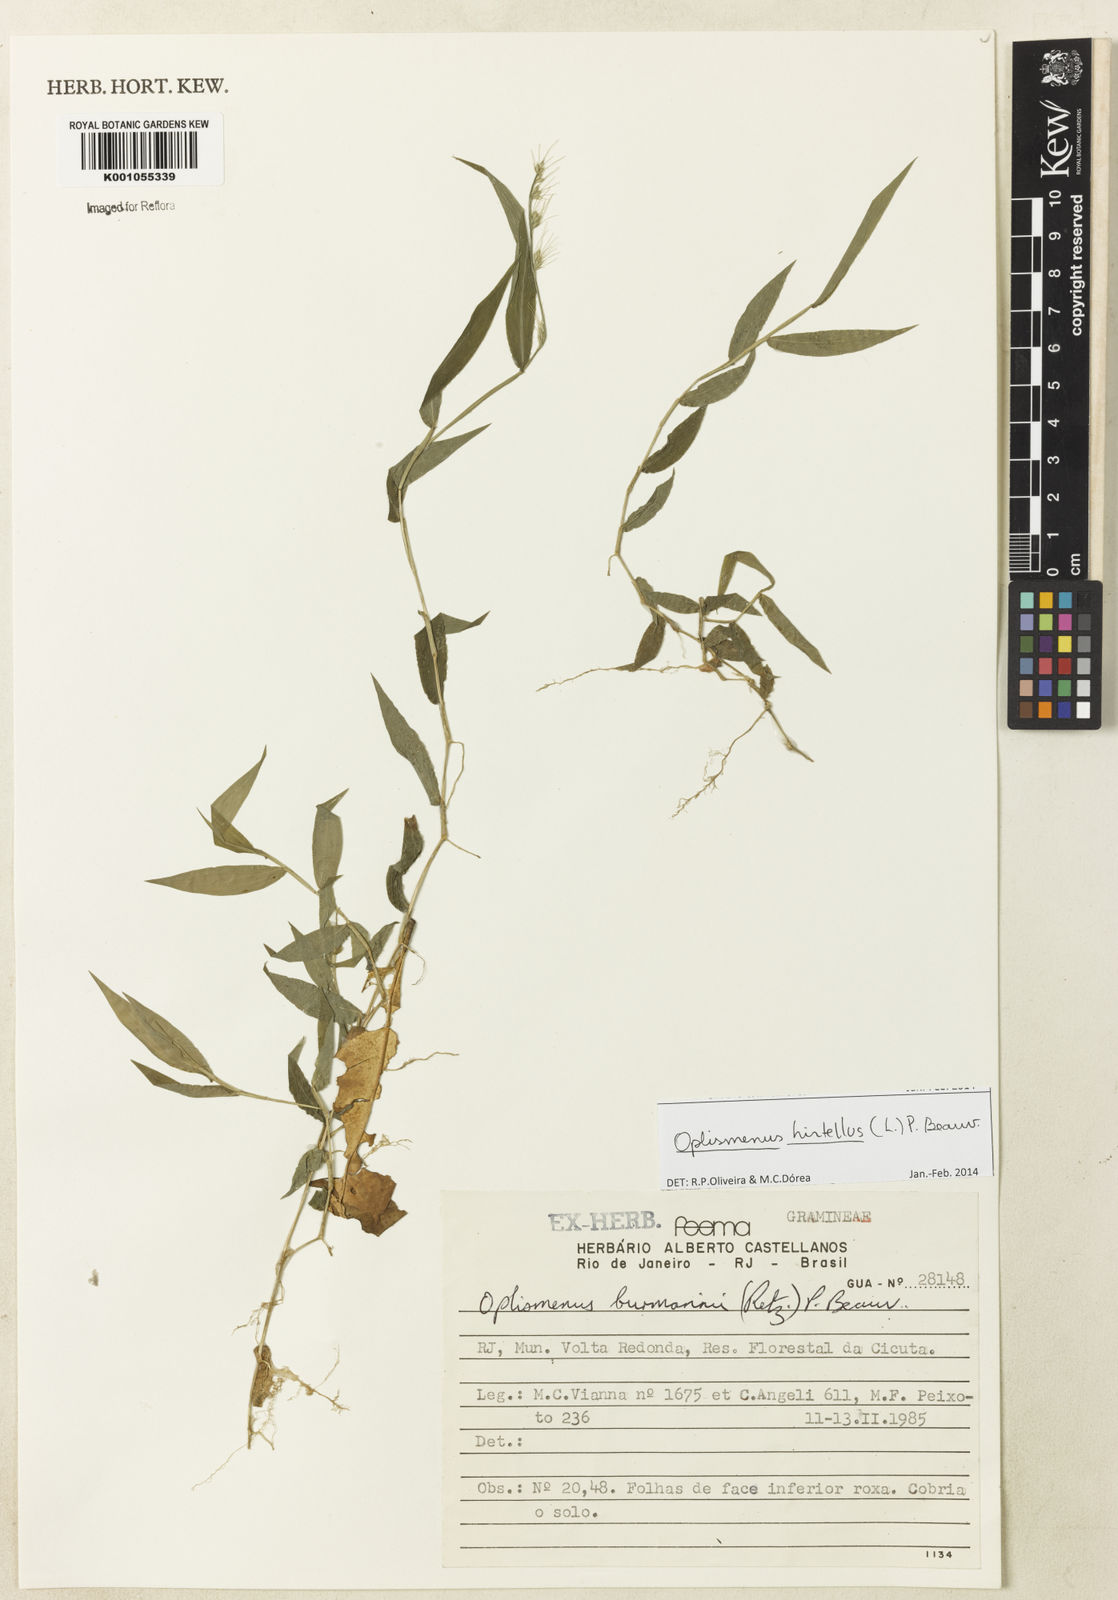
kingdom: Plantae
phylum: Tracheophyta
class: Liliopsida
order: Poales
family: Poaceae
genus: Oplismenus
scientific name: Oplismenus hirtellus
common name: Basketgrass
